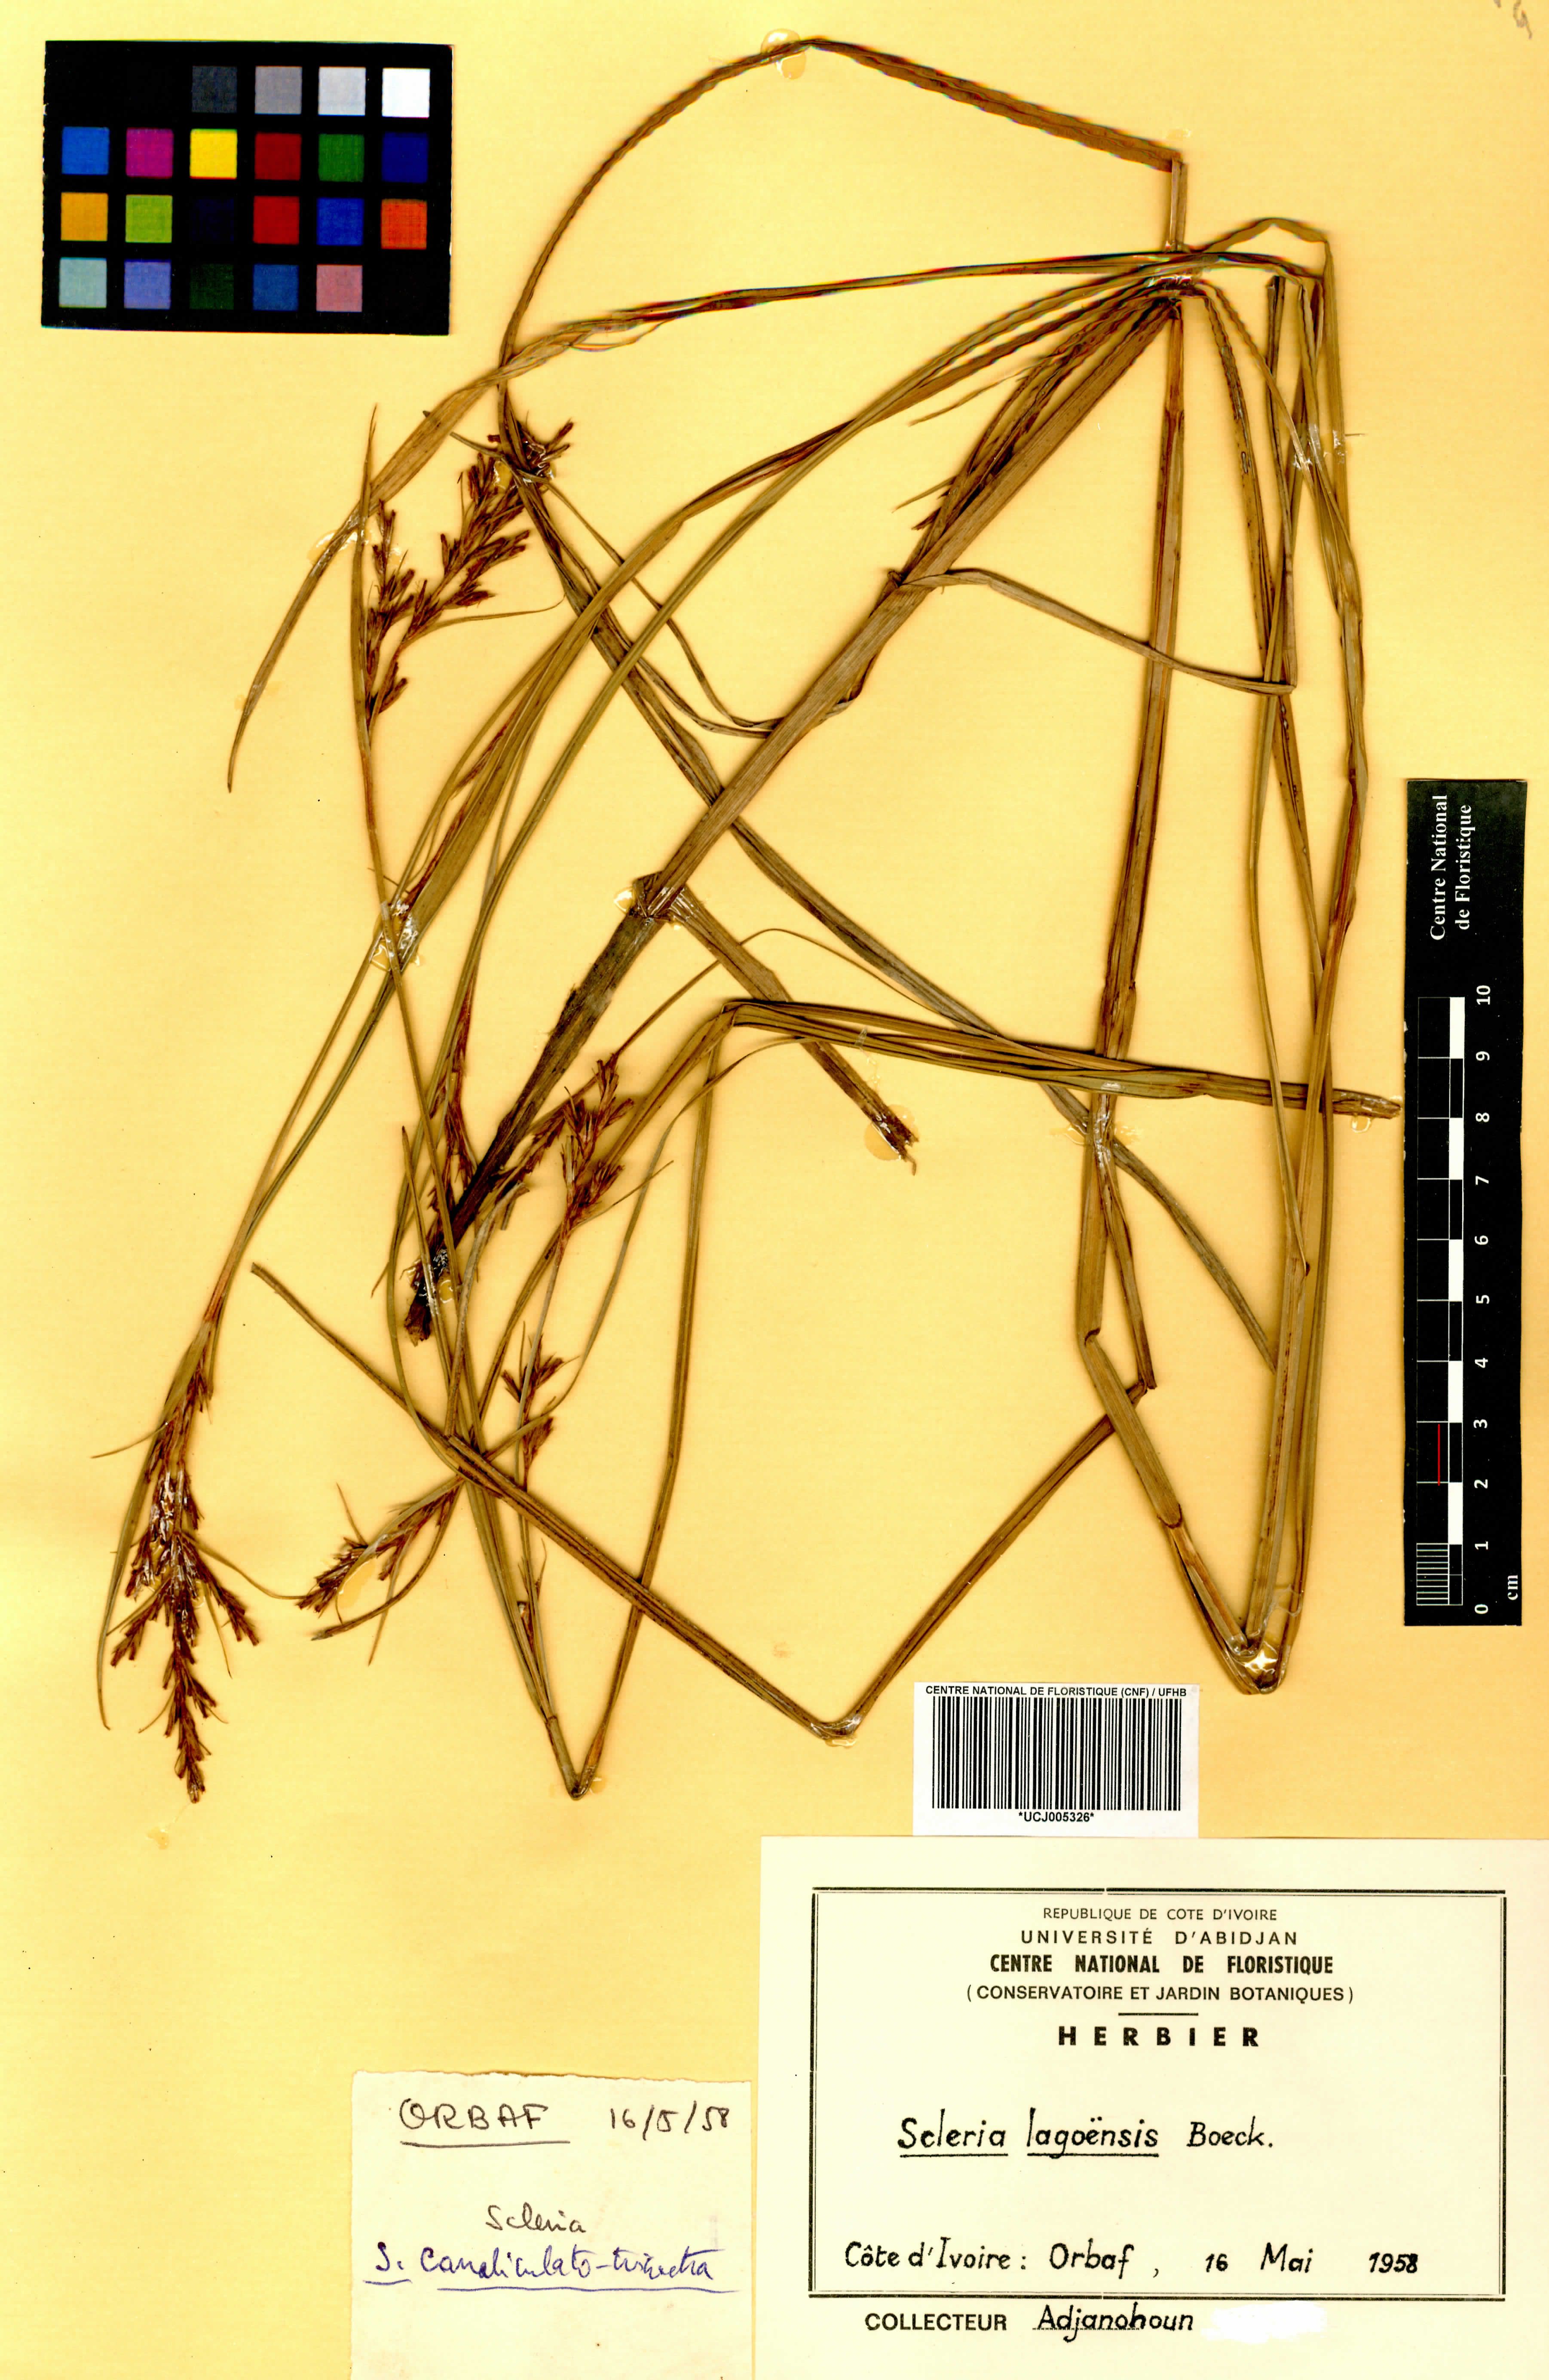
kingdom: Plantae
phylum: Tracheophyta
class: Liliopsida
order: Poales
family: Cyperaceae
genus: Scleria
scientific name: Scleria lagoensis
